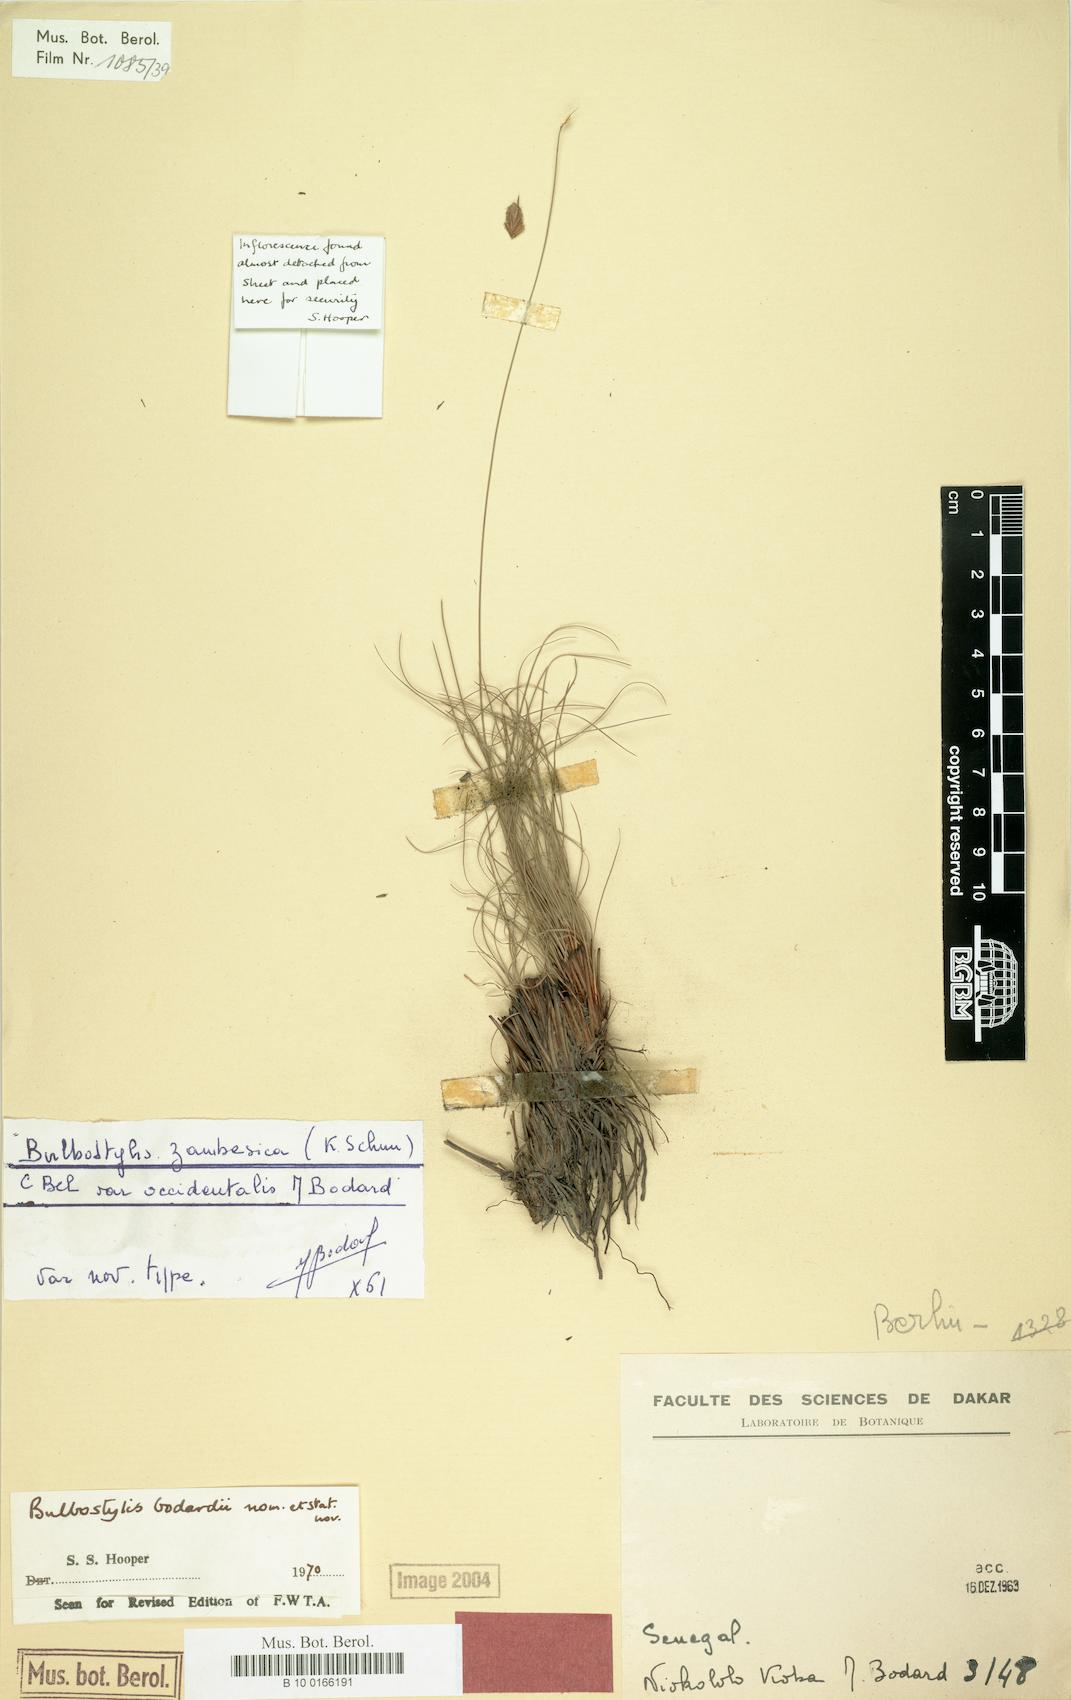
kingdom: Plantae
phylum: Tracheophyta
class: Liliopsida
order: Poales
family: Cyperaceae
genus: Bulbostylis
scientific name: Bulbostylis bodardii
